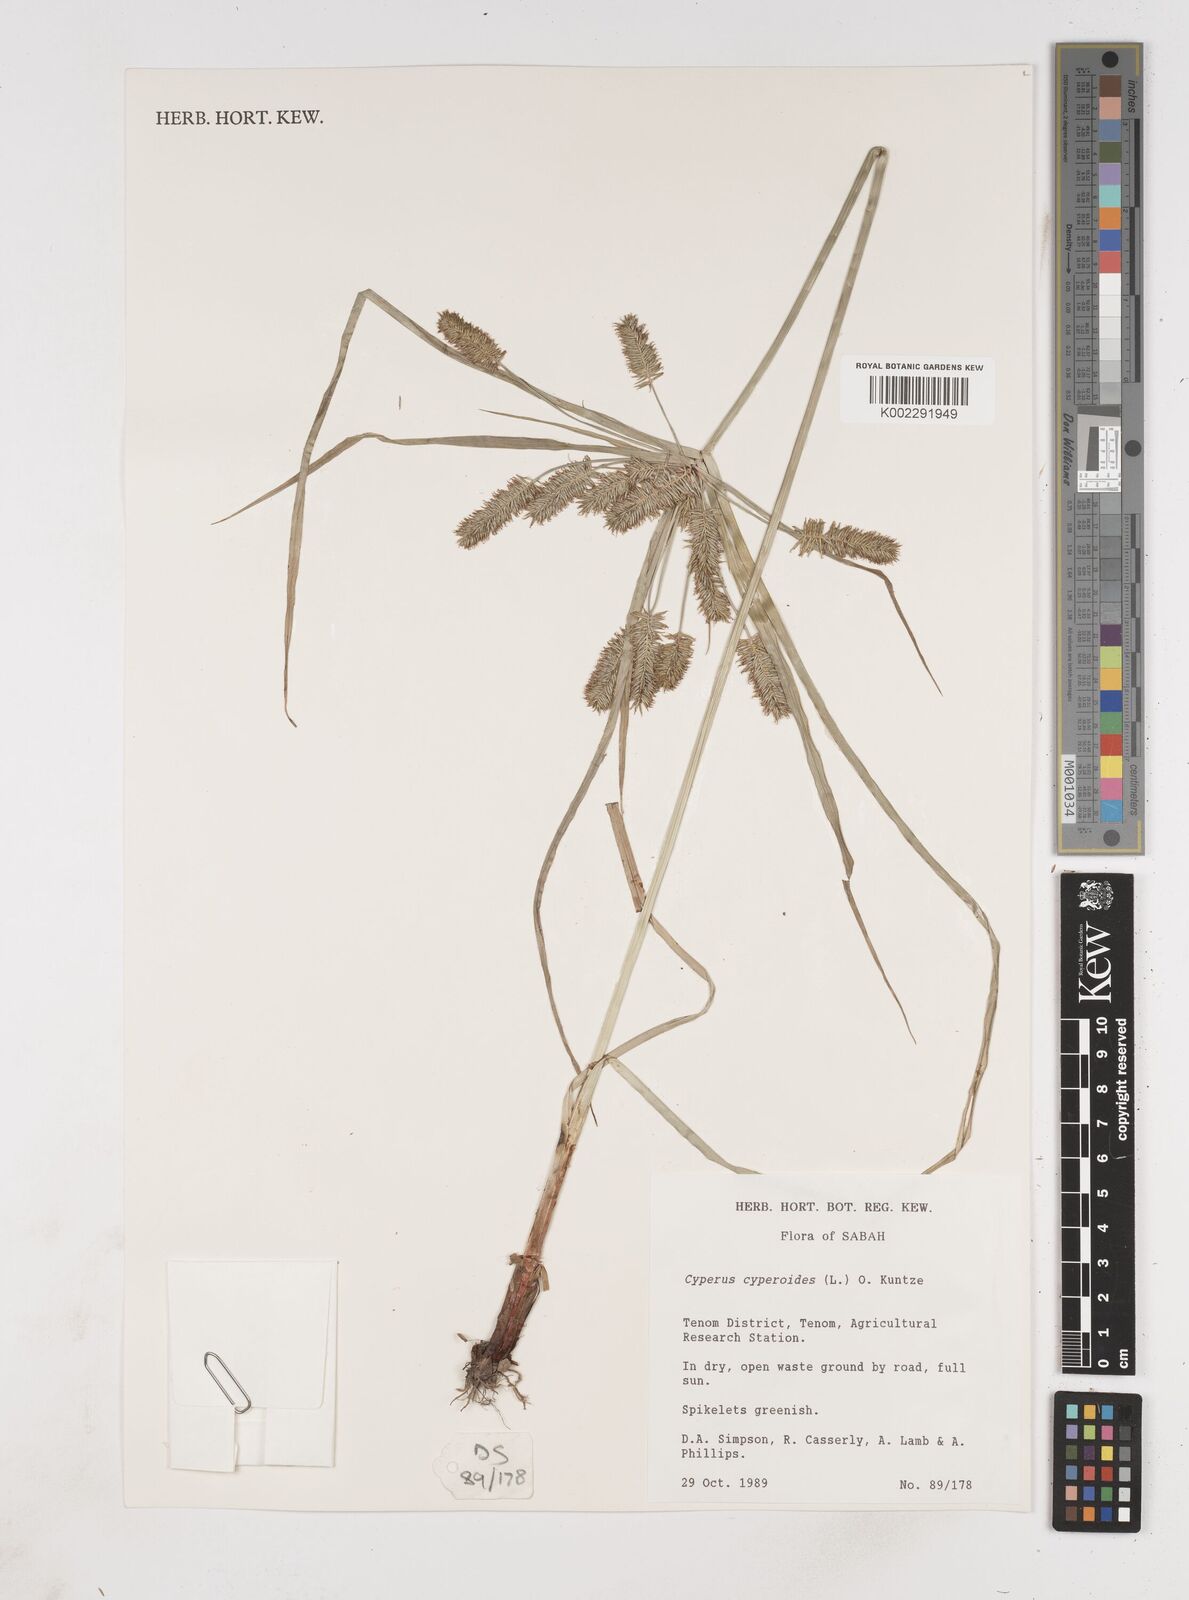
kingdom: Plantae
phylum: Tracheophyta
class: Liliopsida
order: Poales
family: Cyperaceae
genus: Cyperus
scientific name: Cyperus cyperoides
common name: Pacific island flat sedge
